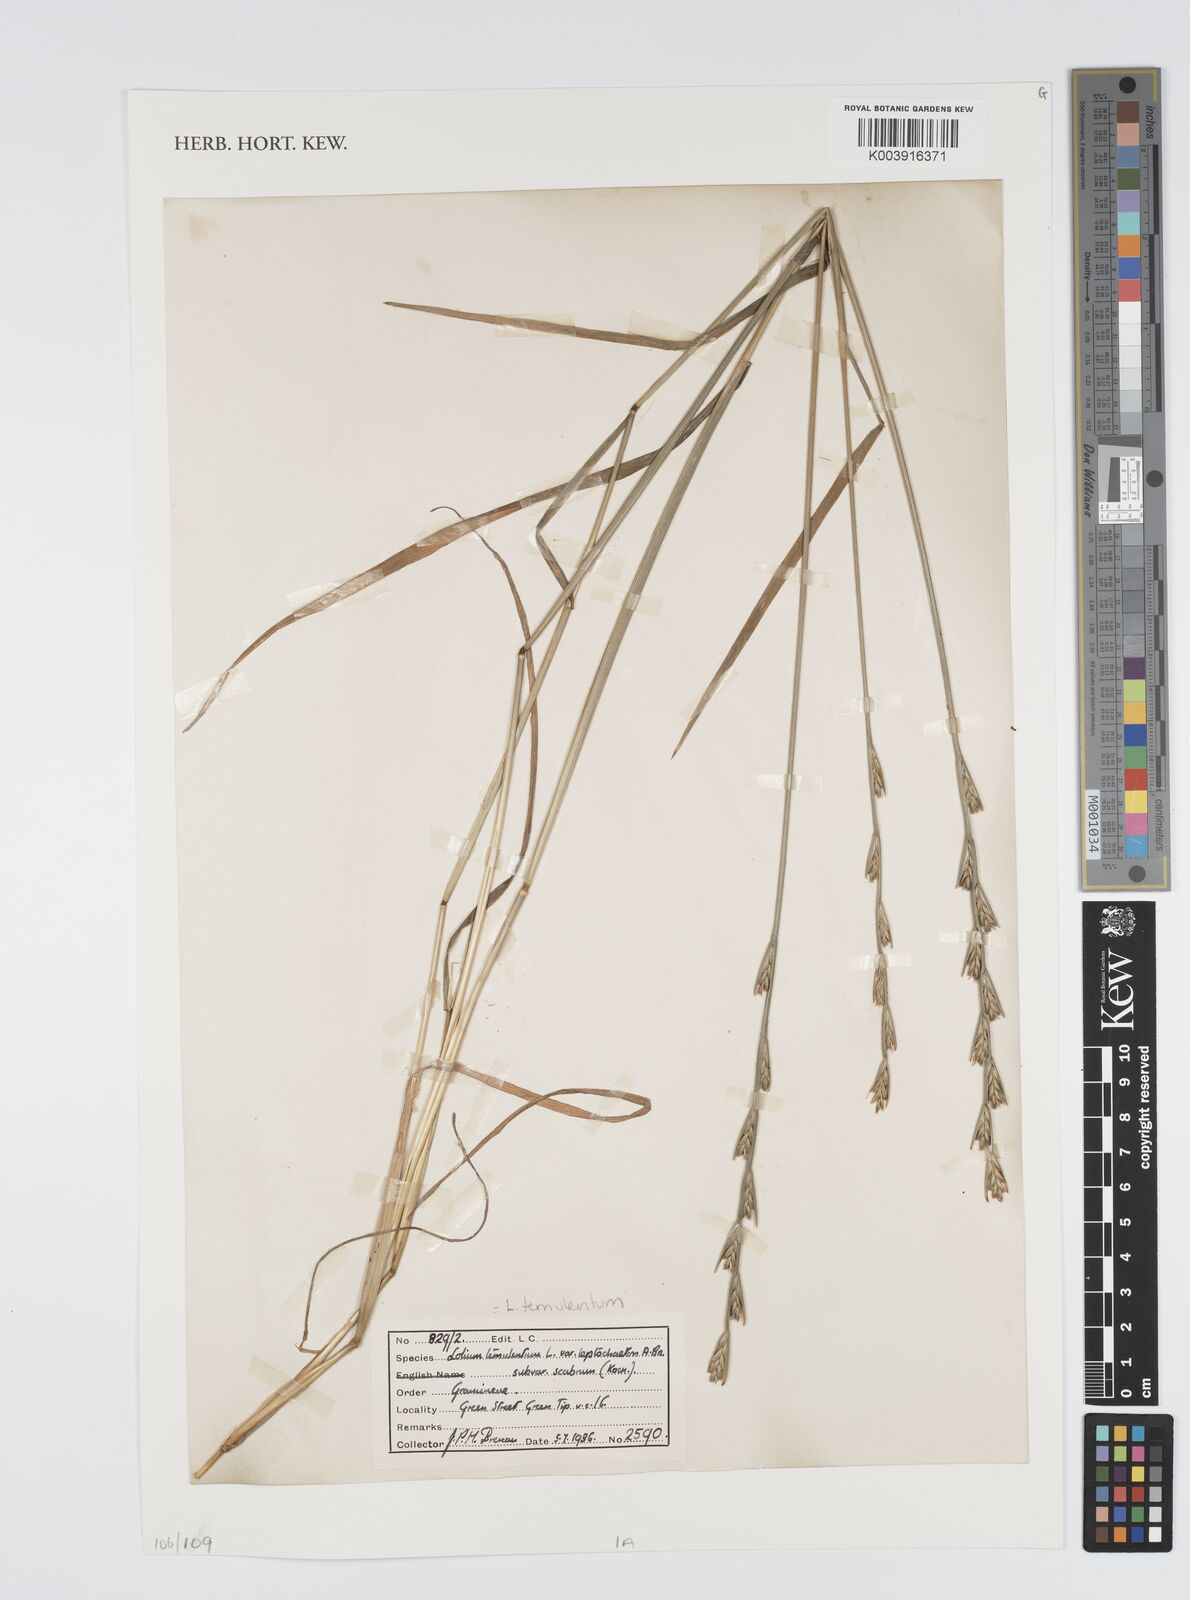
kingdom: Plantae
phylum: Tracheophyta
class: Liliopsida
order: Poales
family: Poaceae
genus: Lolium
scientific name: Lolium temulentum
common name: Darnel
